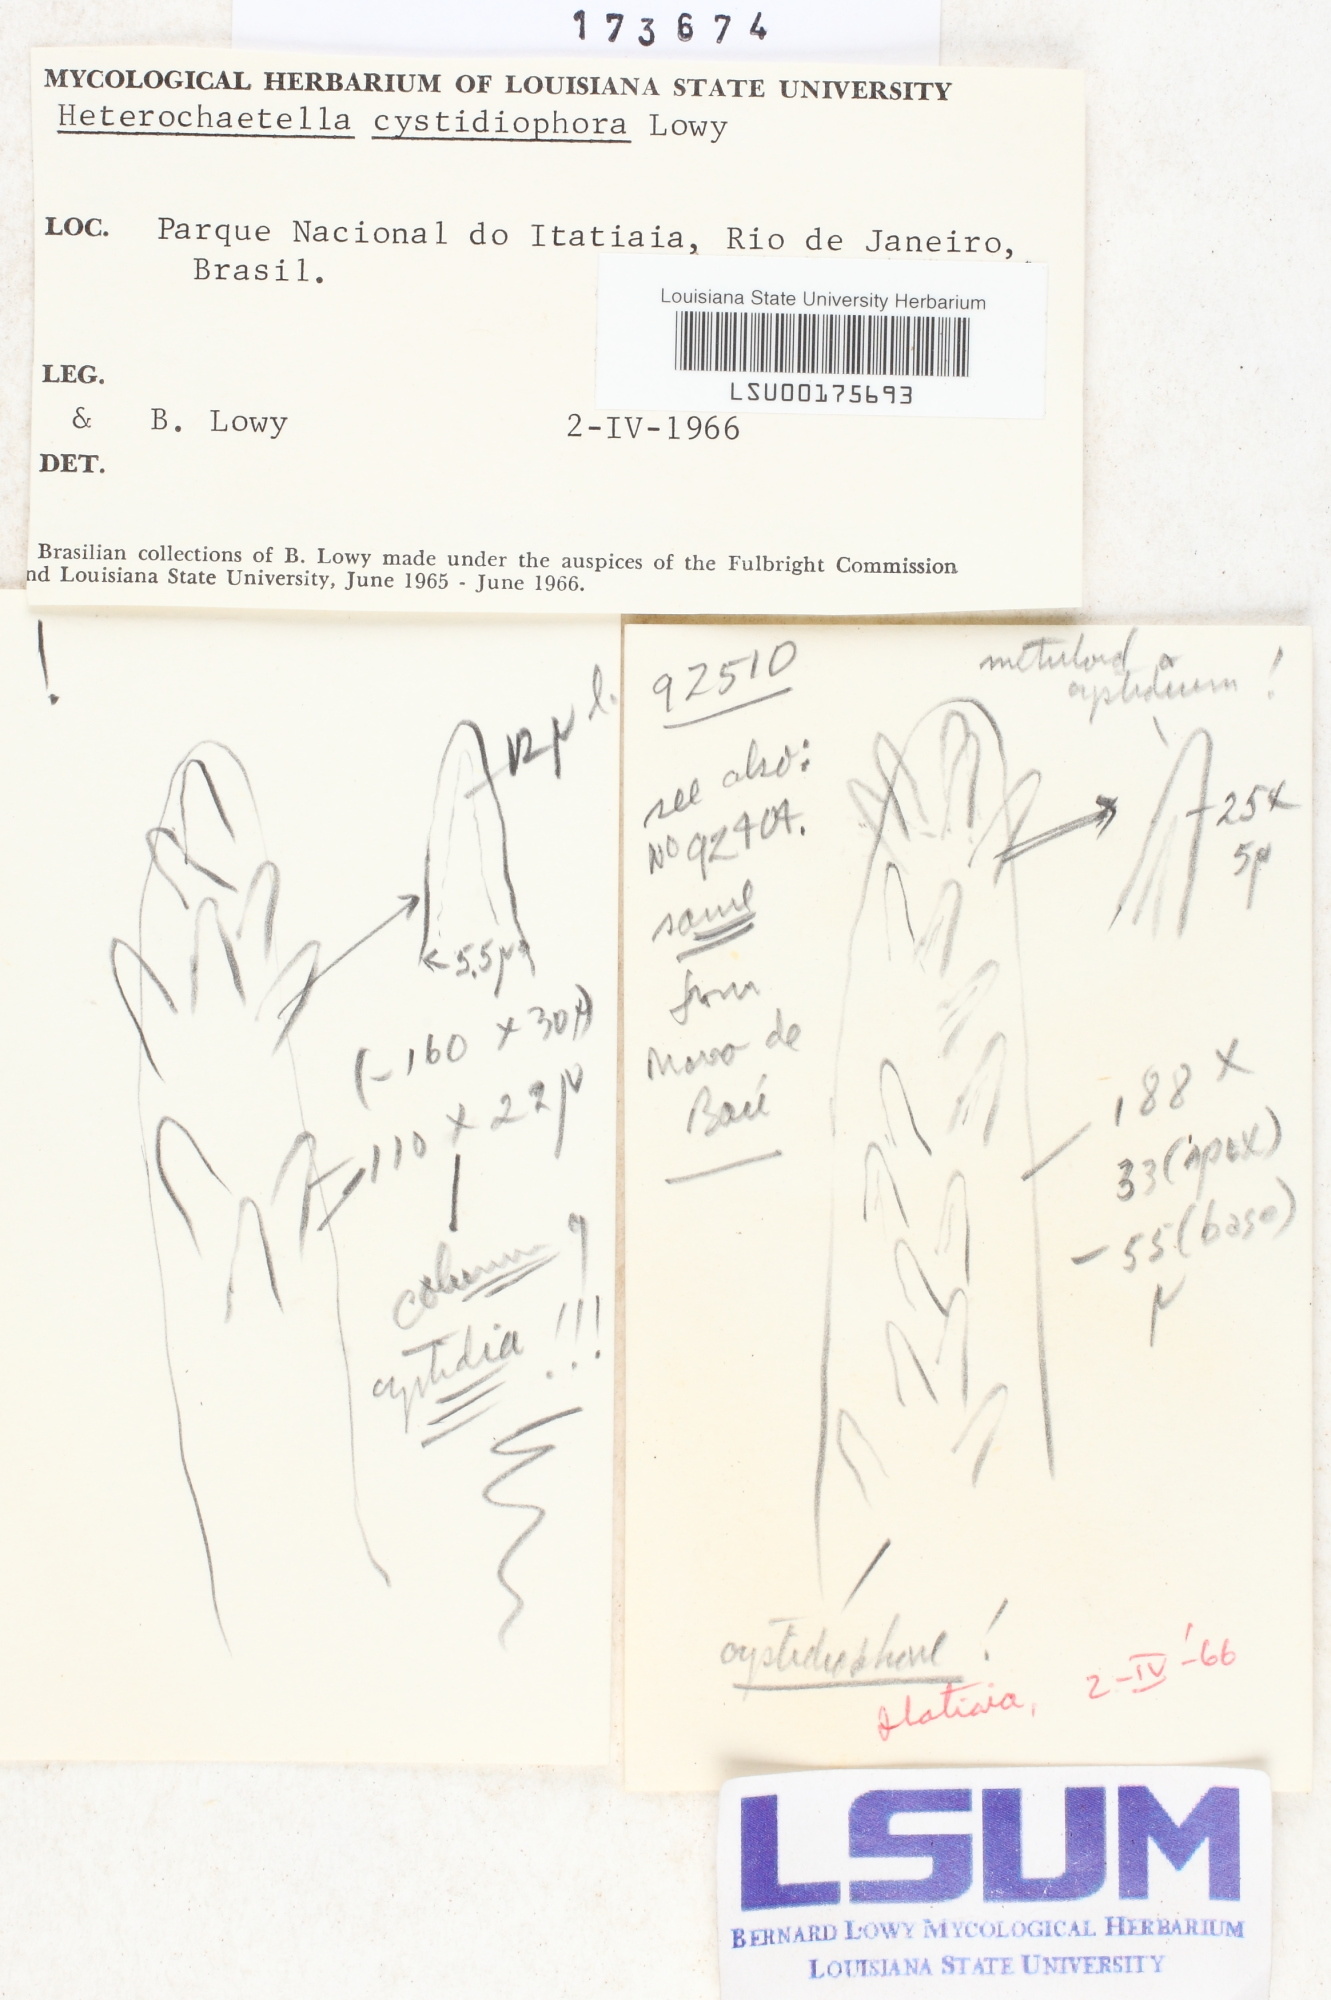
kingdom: Fungi
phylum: Basidiomycota
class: Agaricomycetes
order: Auriculariales
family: Auriculariaceae
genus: Heterochaete
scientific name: Heterochaete cystidiophora
